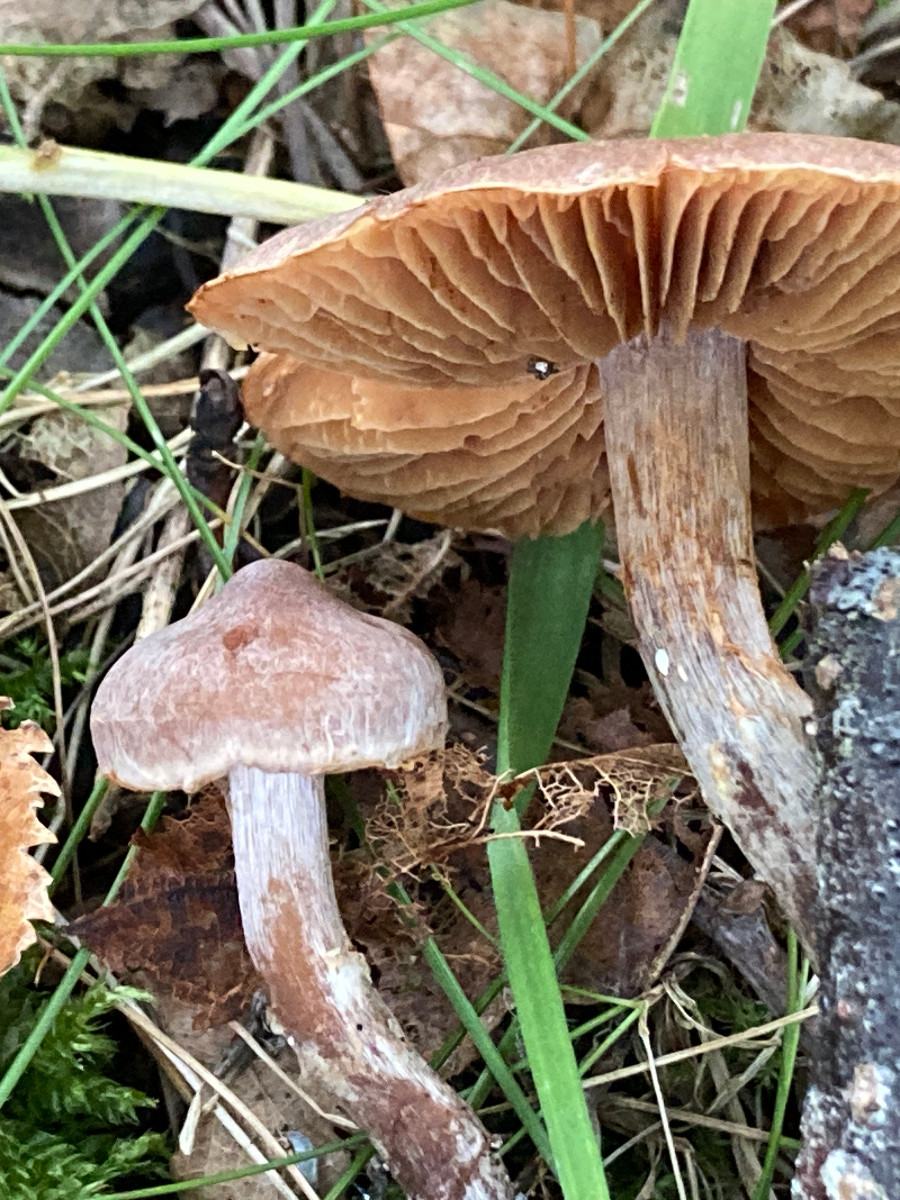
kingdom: Fungi
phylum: Basidiomycota
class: Agaricomycetes
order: Agaricales
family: Cortinariaceae
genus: Cortinarius
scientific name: Cortinarius
